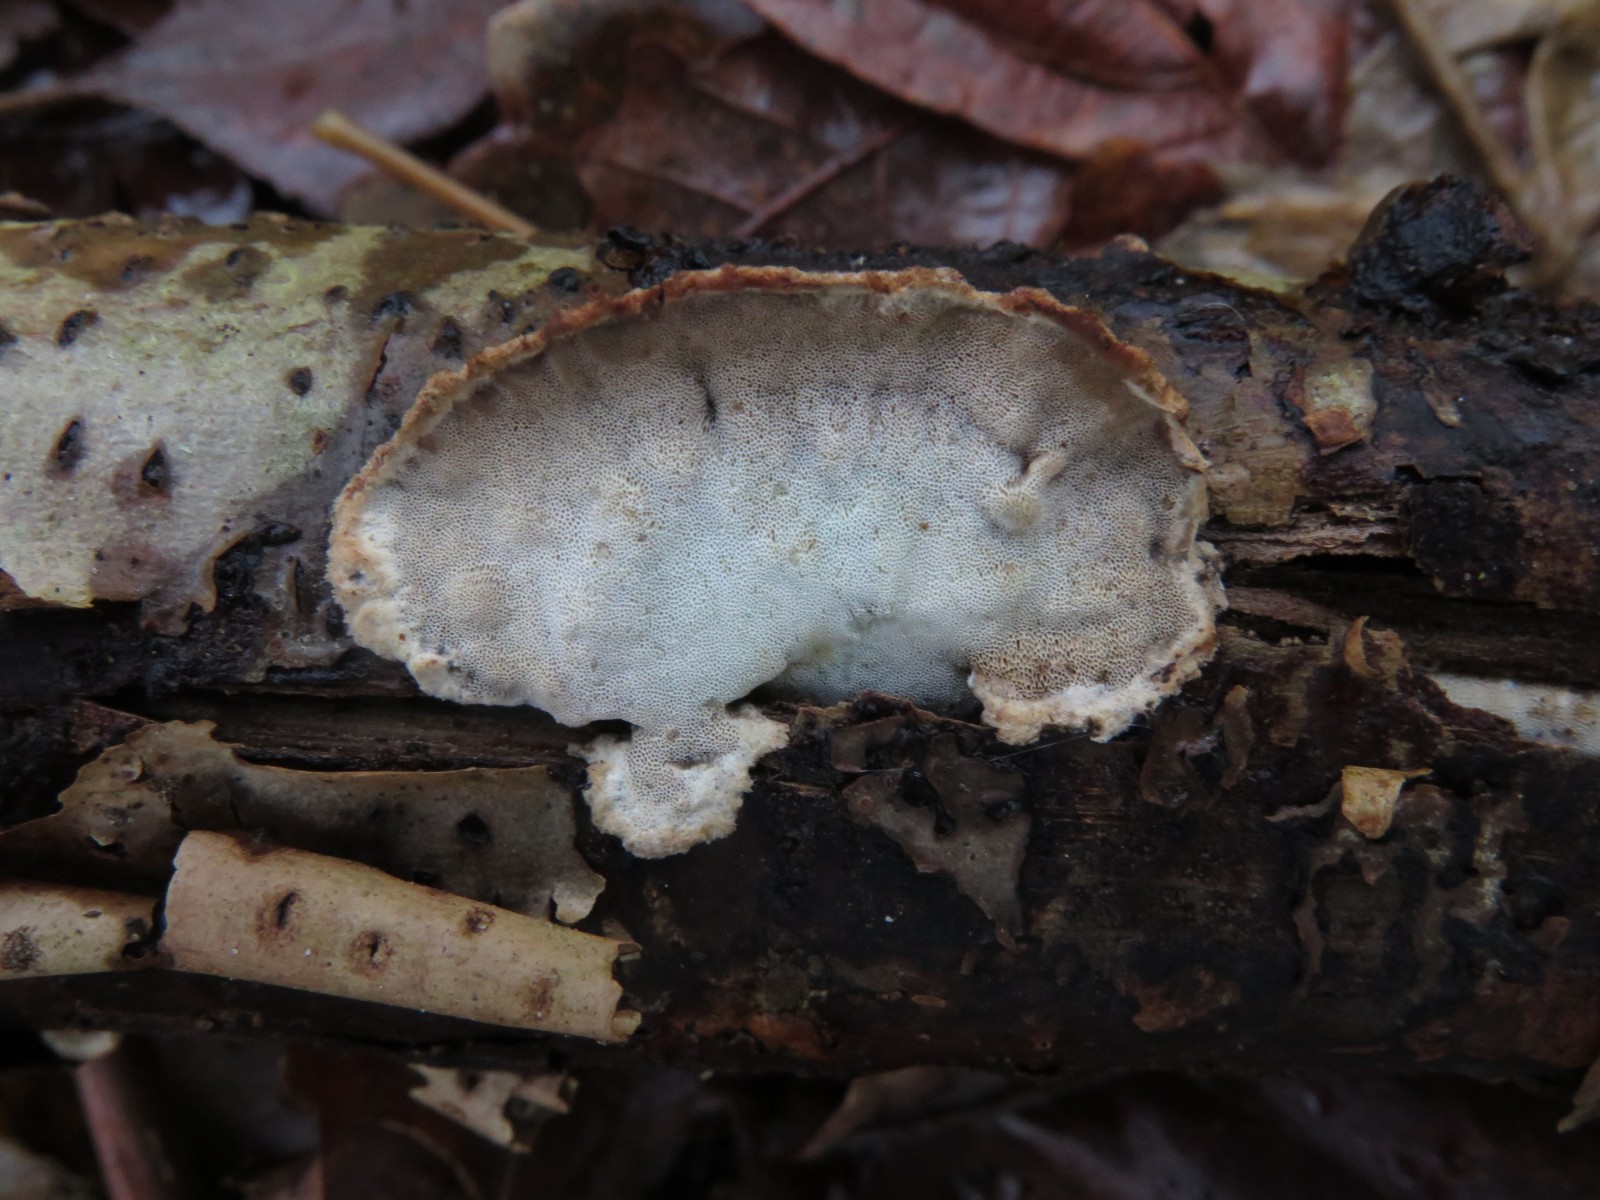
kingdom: Fungi
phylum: Basidiomycota
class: Agaricomycetes
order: Polyporales
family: Incrustoporiaceae
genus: Skeletocutis
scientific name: Skeletocutis nemoralis
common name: stor krystalporesvamp
